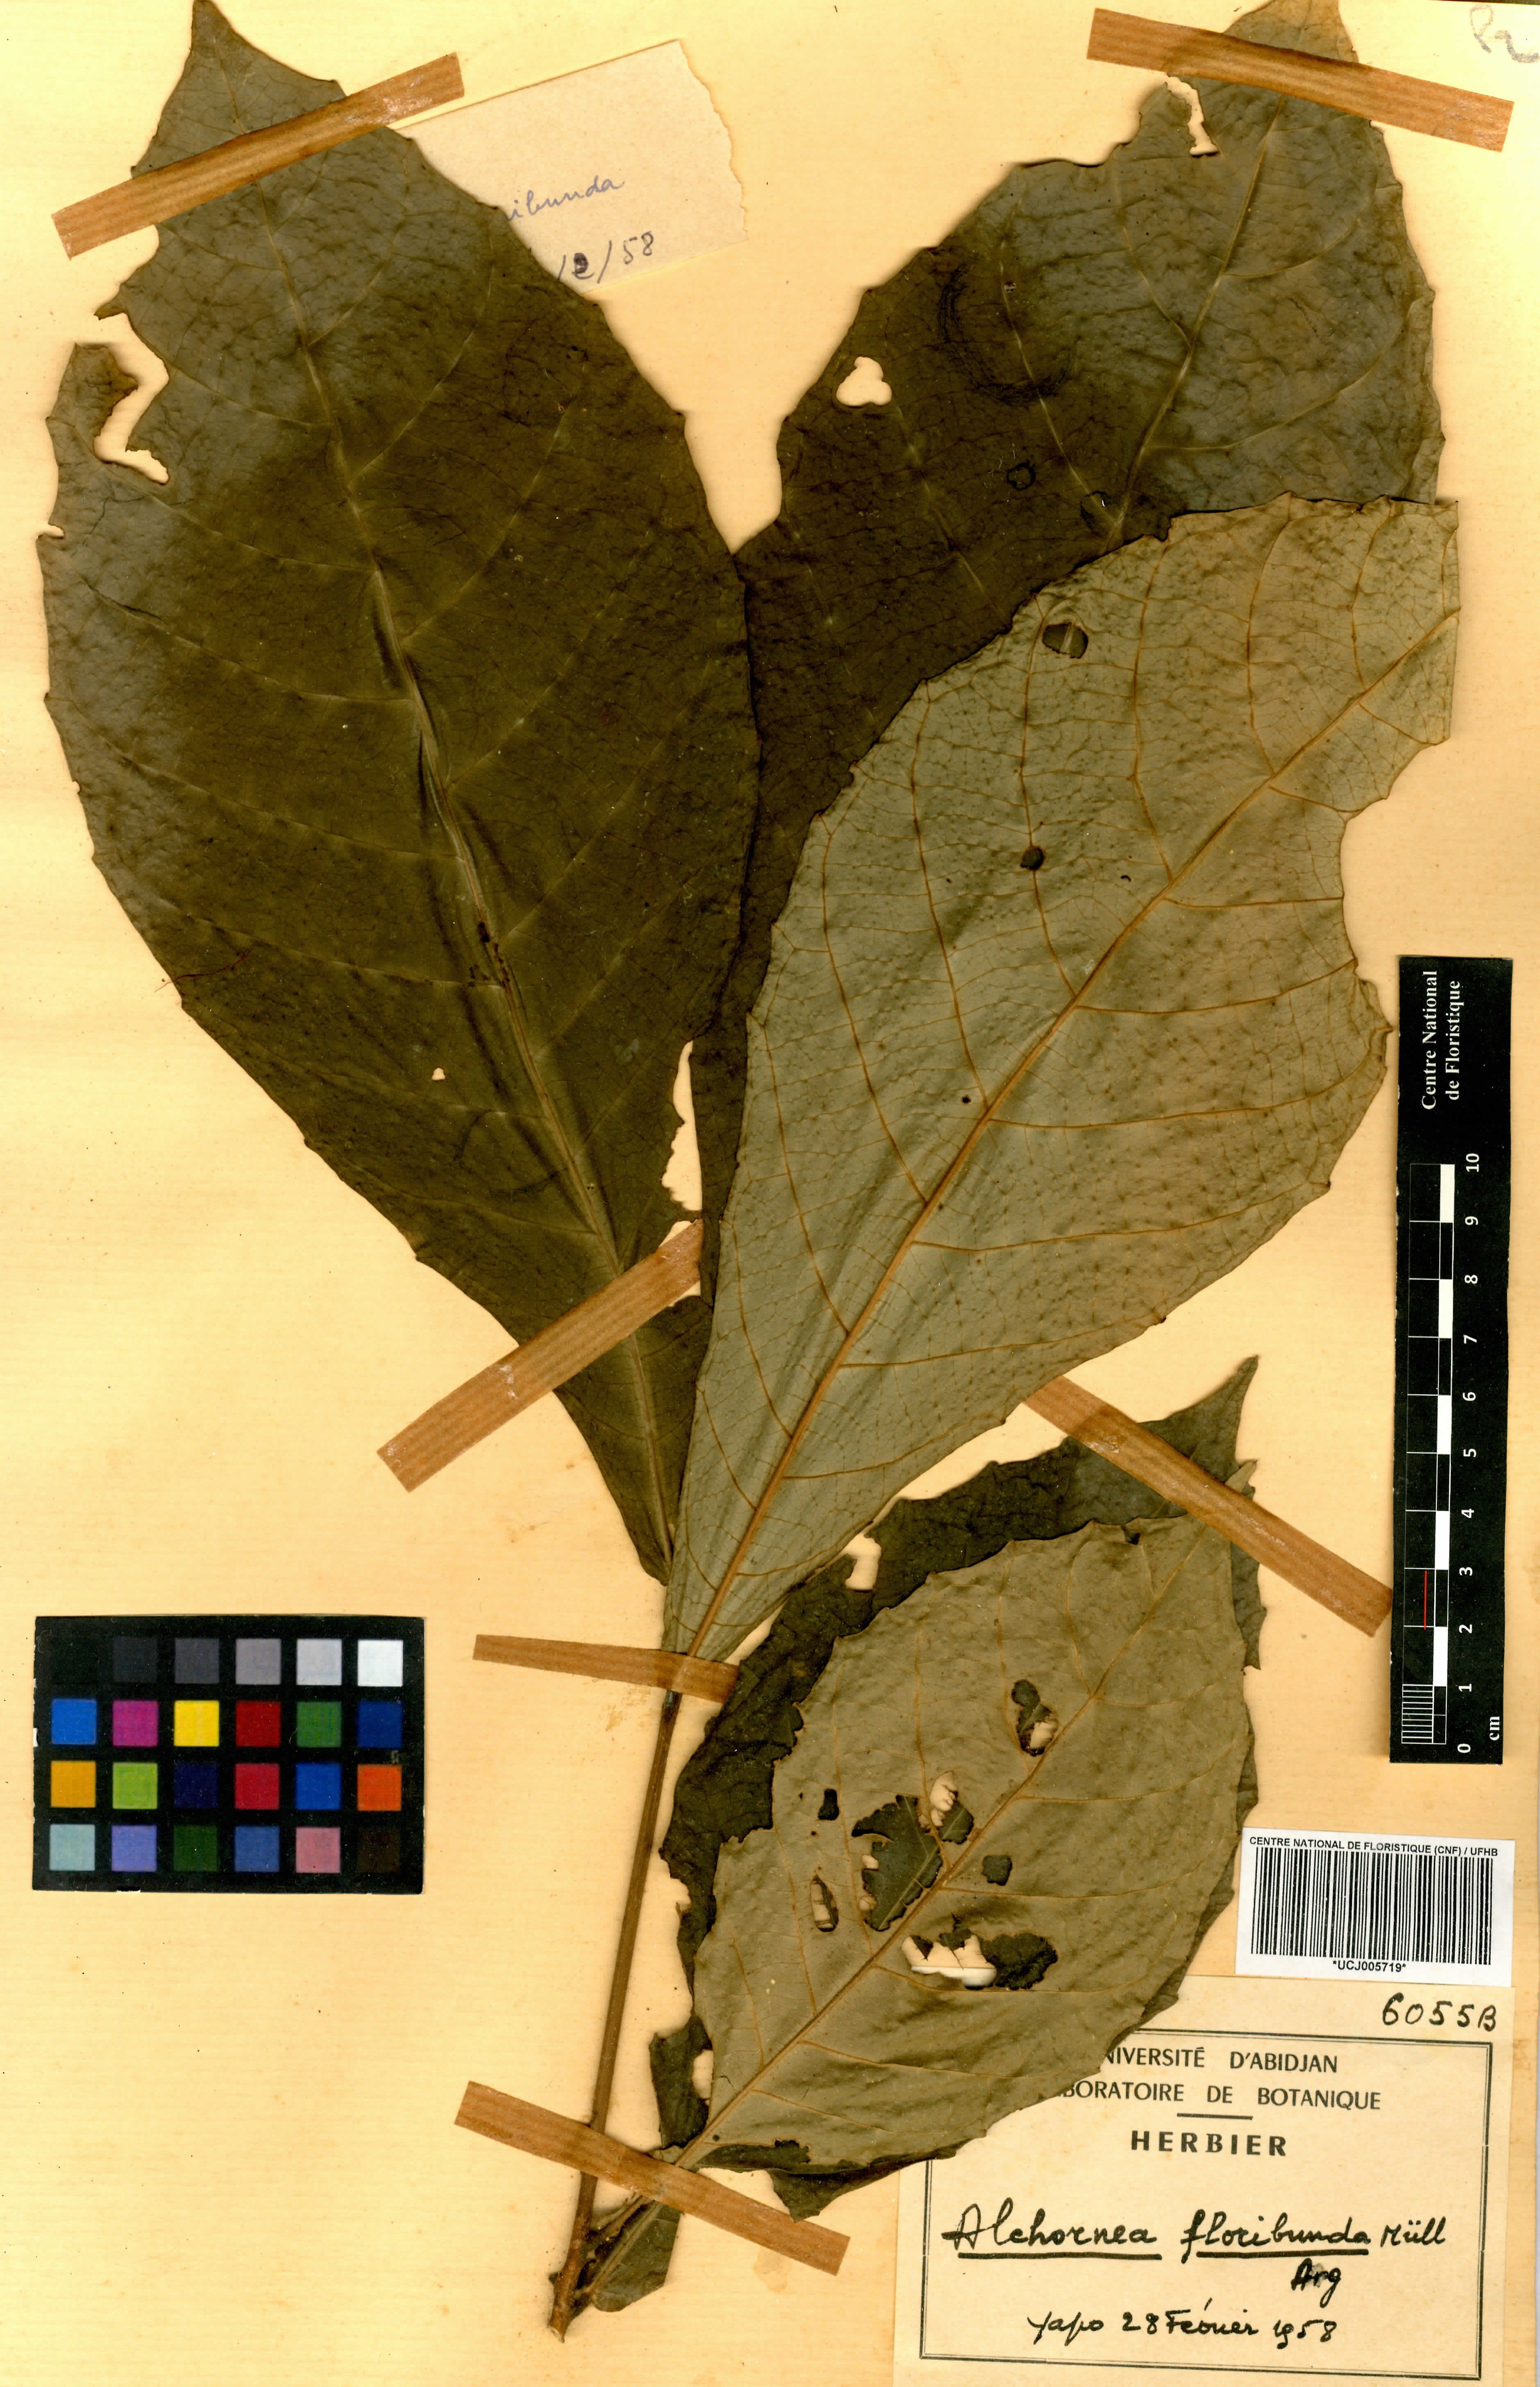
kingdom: Plantae
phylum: Tracheophyta
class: Magnoliopsida
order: Malpighiales
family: Euphorbiaceae
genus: Alchornea
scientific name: Alchornea floribunda
